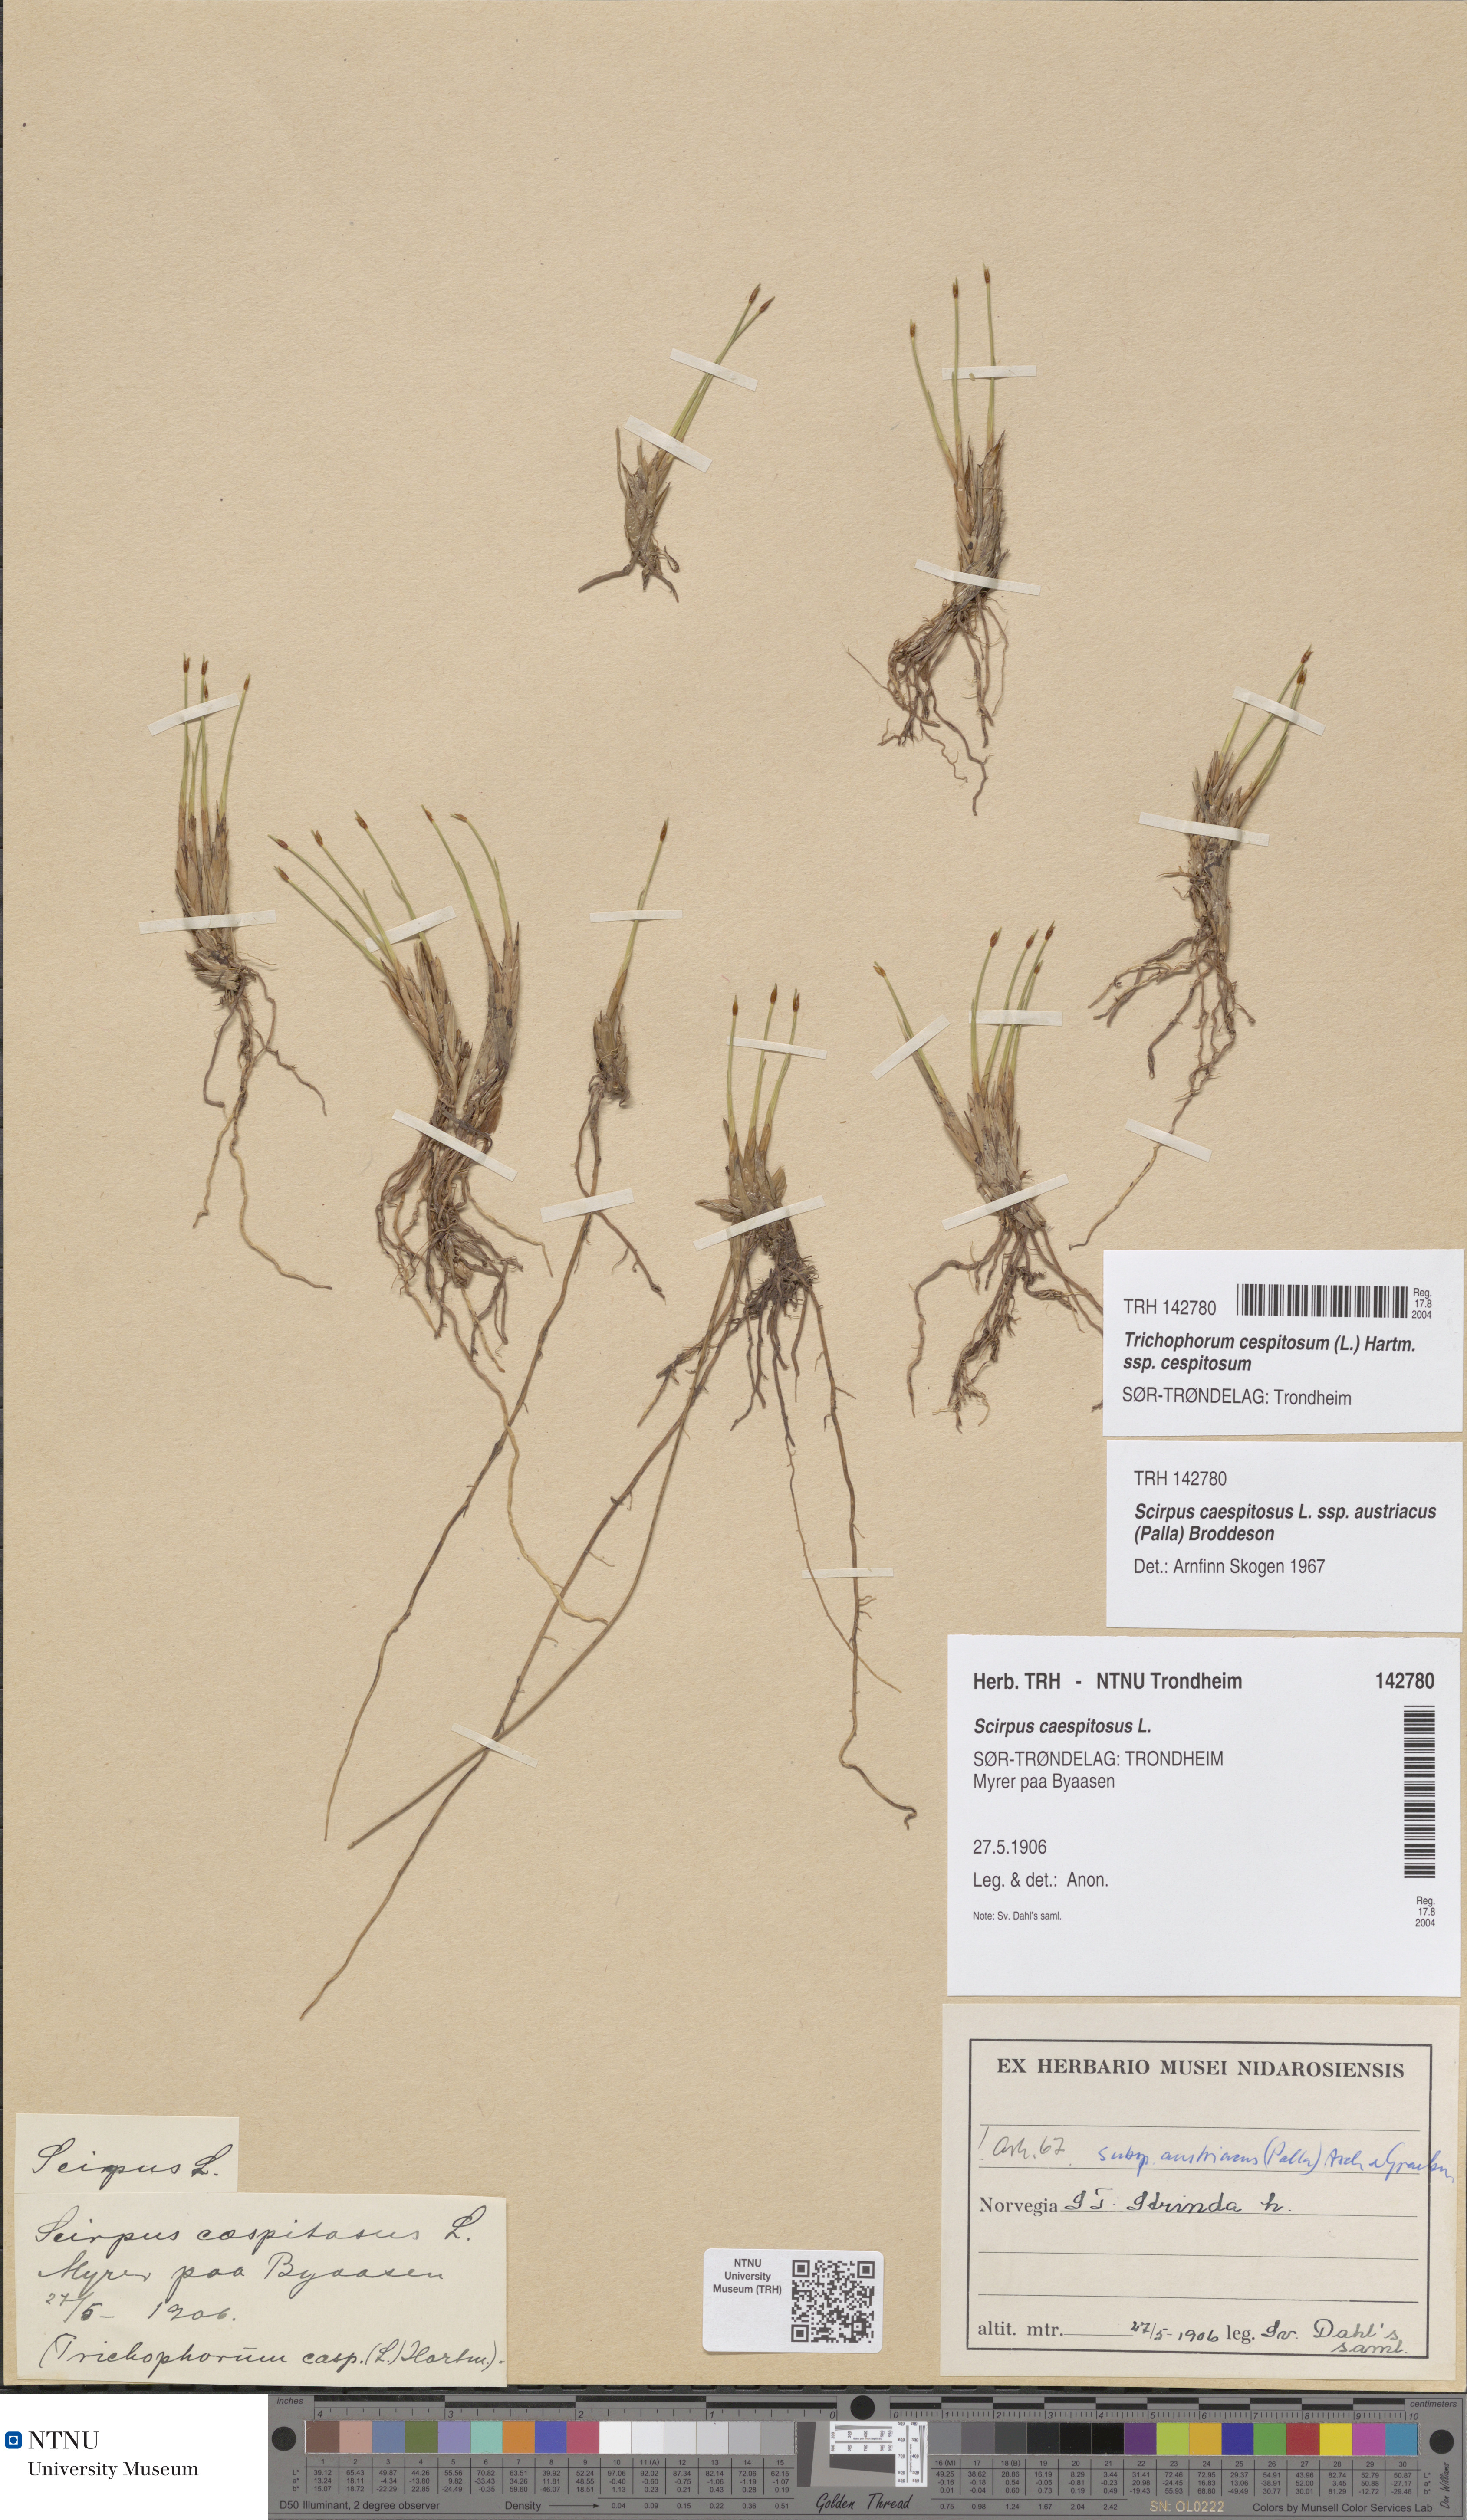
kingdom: Plantae
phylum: Tracheophyta
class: Liliopsida
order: Poales
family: Cyperaceae
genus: Trichophorum
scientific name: Trichophorum cespitosum
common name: Cespitose bulrush
